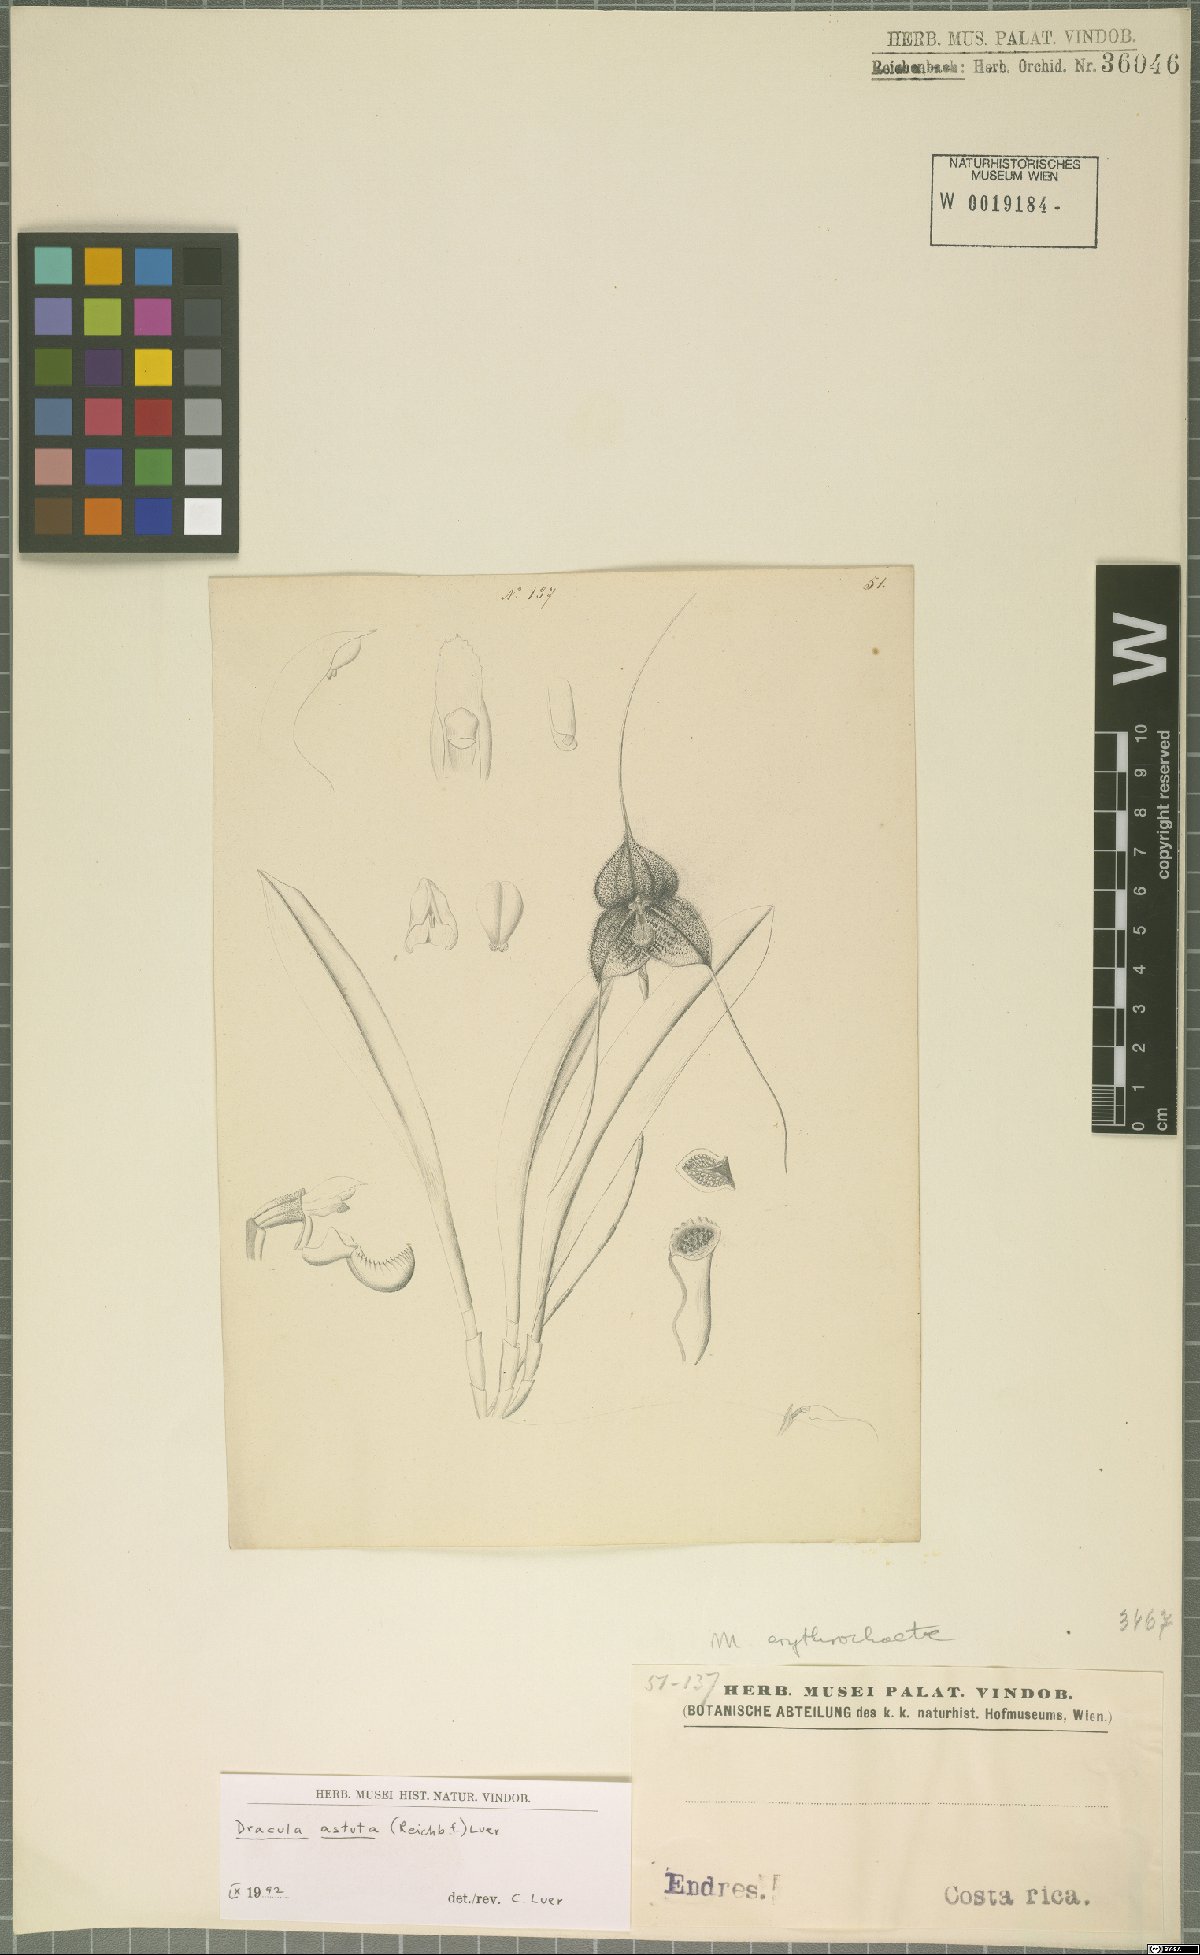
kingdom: Plantae
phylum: Tracheophyta
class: Liliopsida
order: Asparagales
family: Orchidaceae
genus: Dracula
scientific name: Dracula astuta
